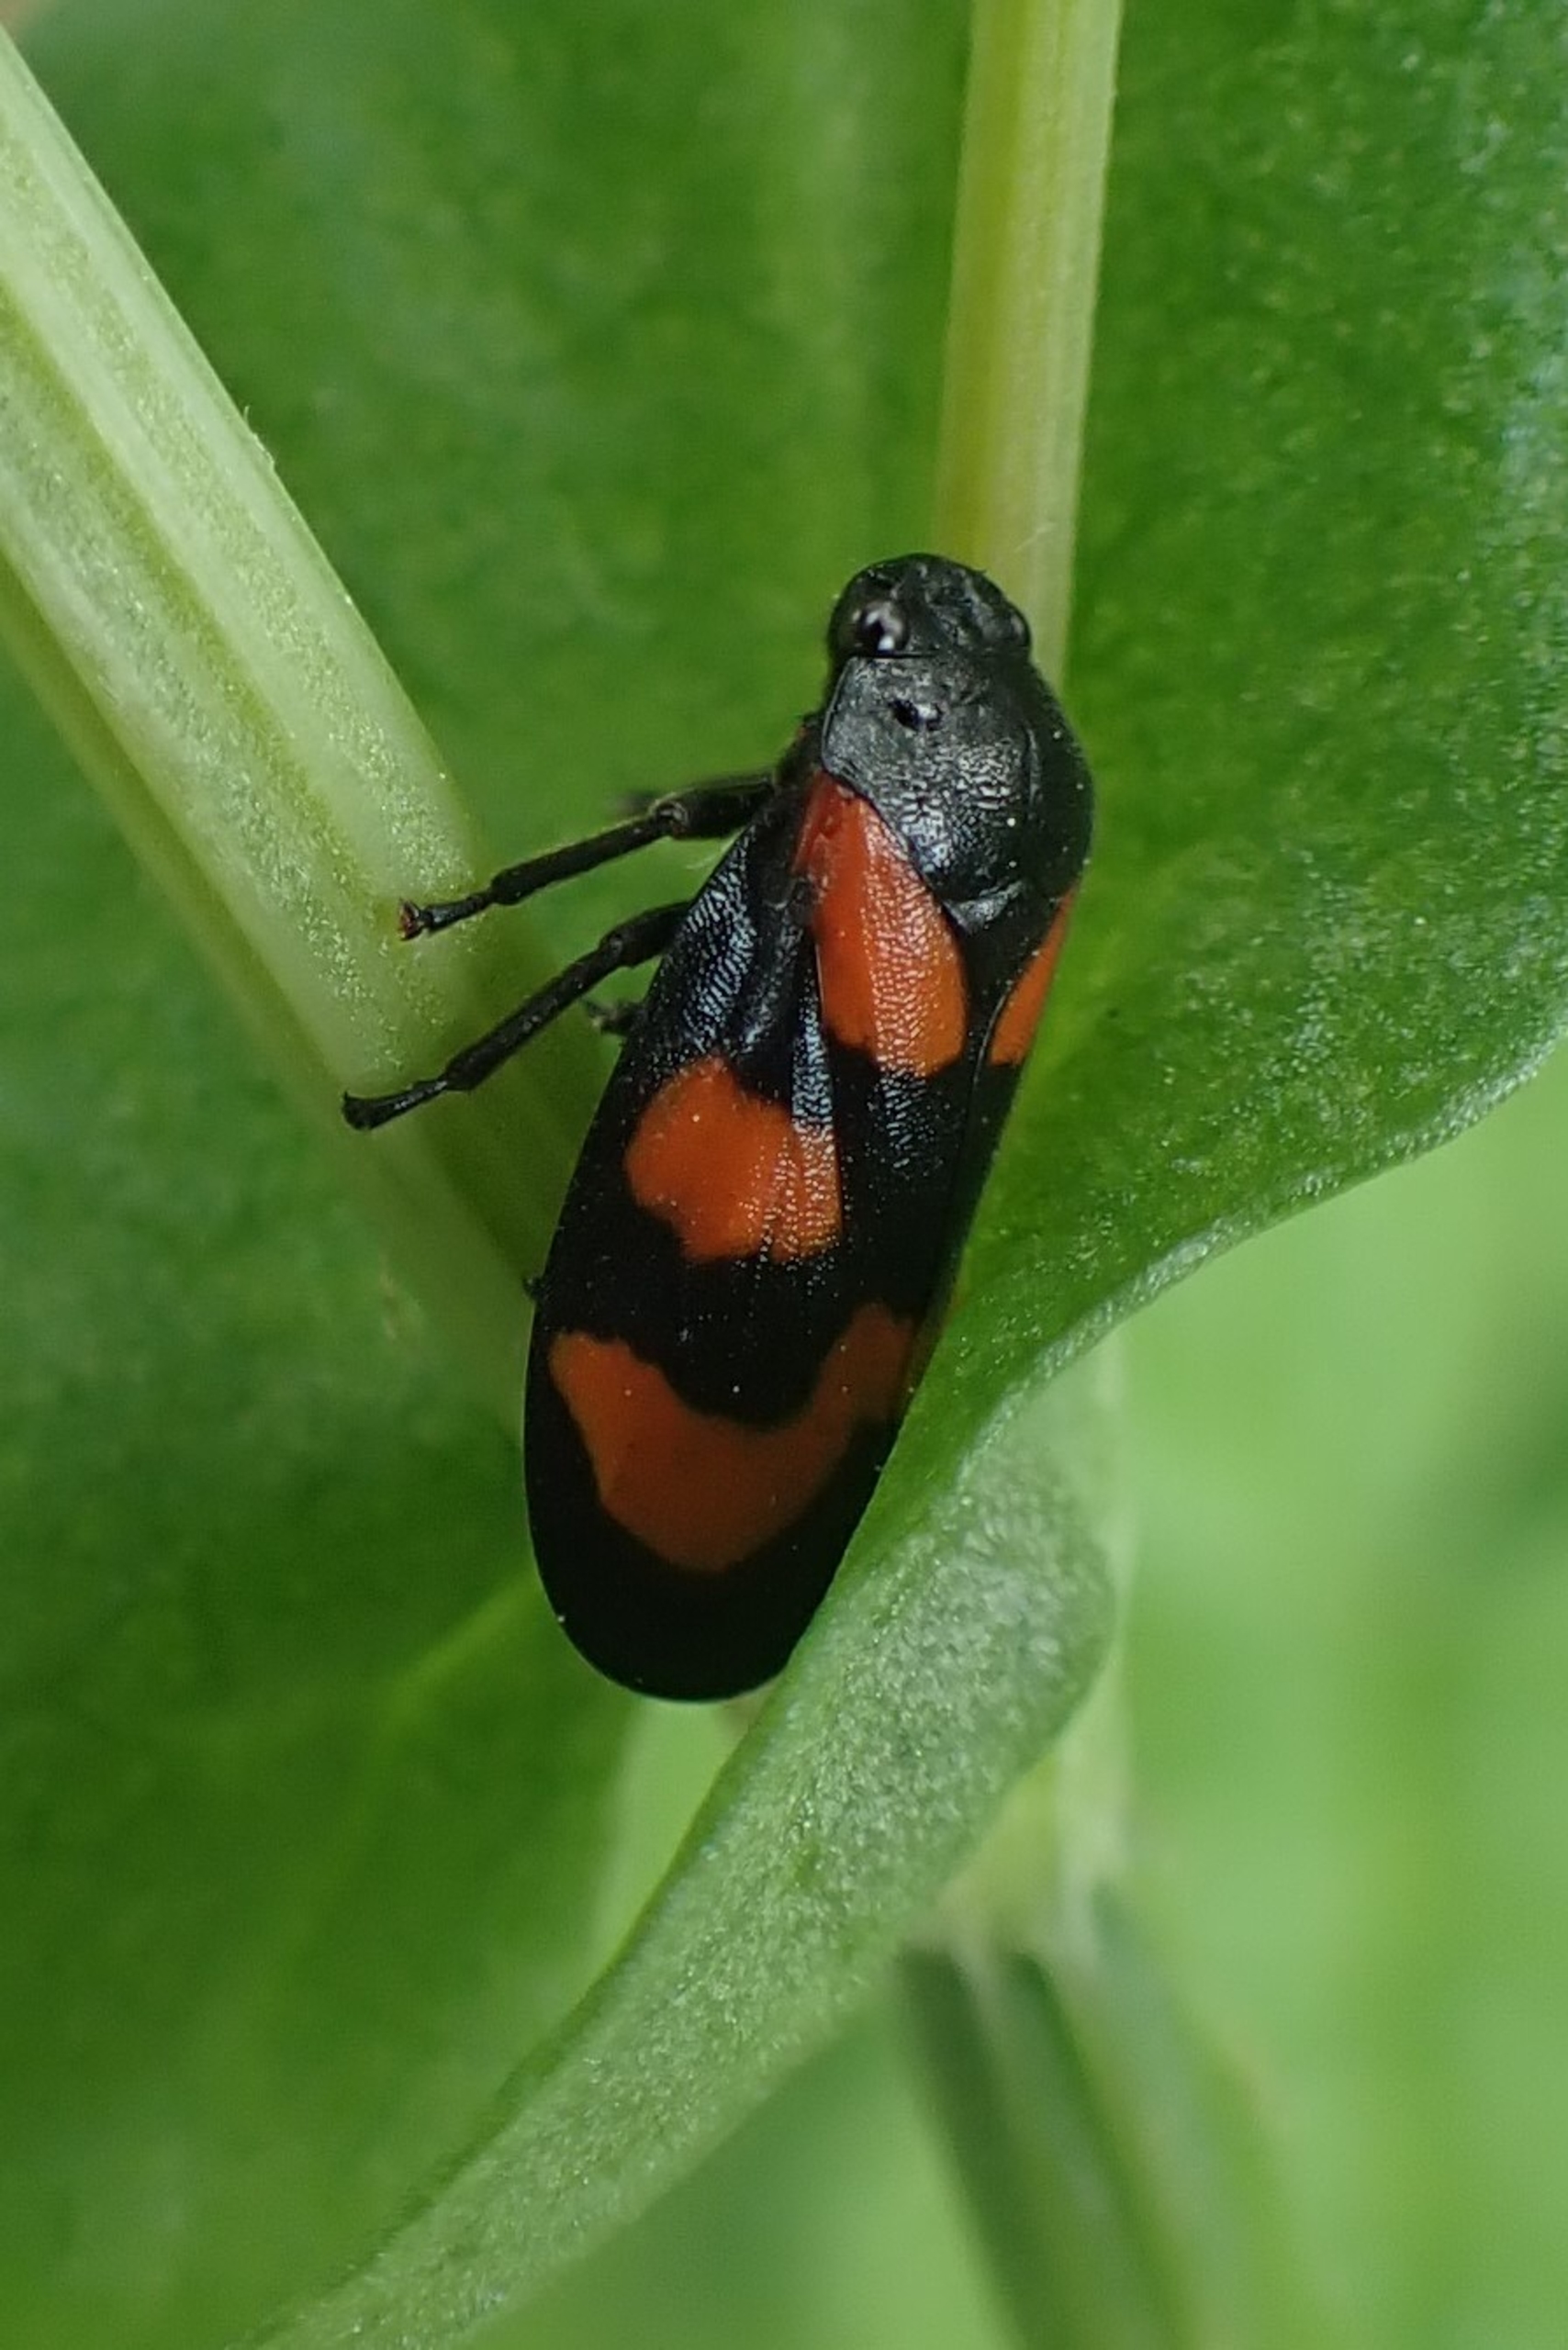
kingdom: Animalia
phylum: Arthropoda
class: Insecta
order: Hemiptera
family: Cercopidae
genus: Cercopis
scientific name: Cercopis vulnerata
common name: Blodcikade
